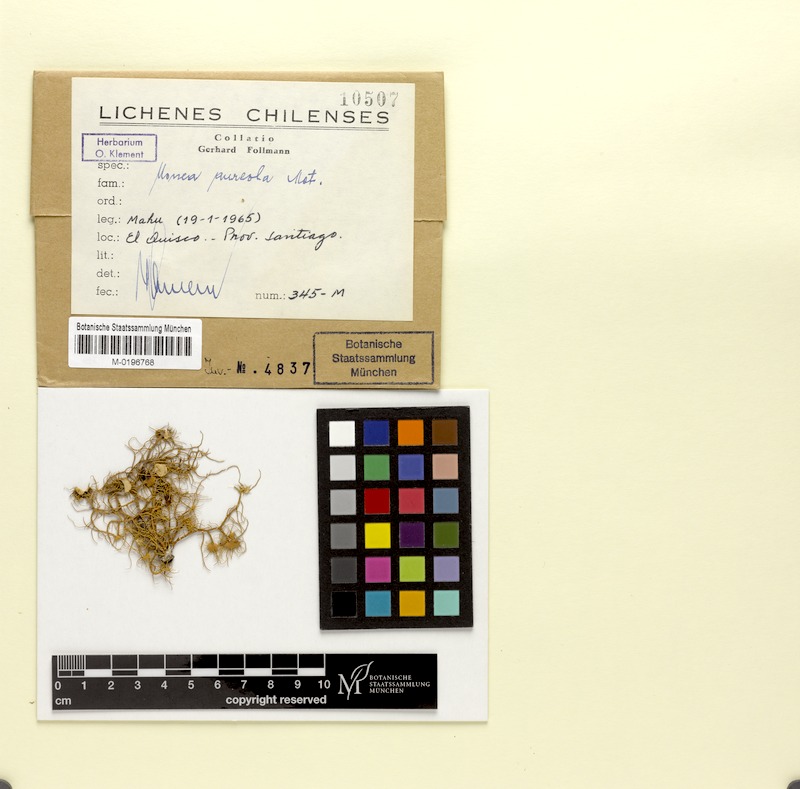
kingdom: Fungi
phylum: Ascomycota
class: Lecanoromycetes
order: Lecanorales
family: Parmeliaceae
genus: Usnea
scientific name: Usnea aureola
